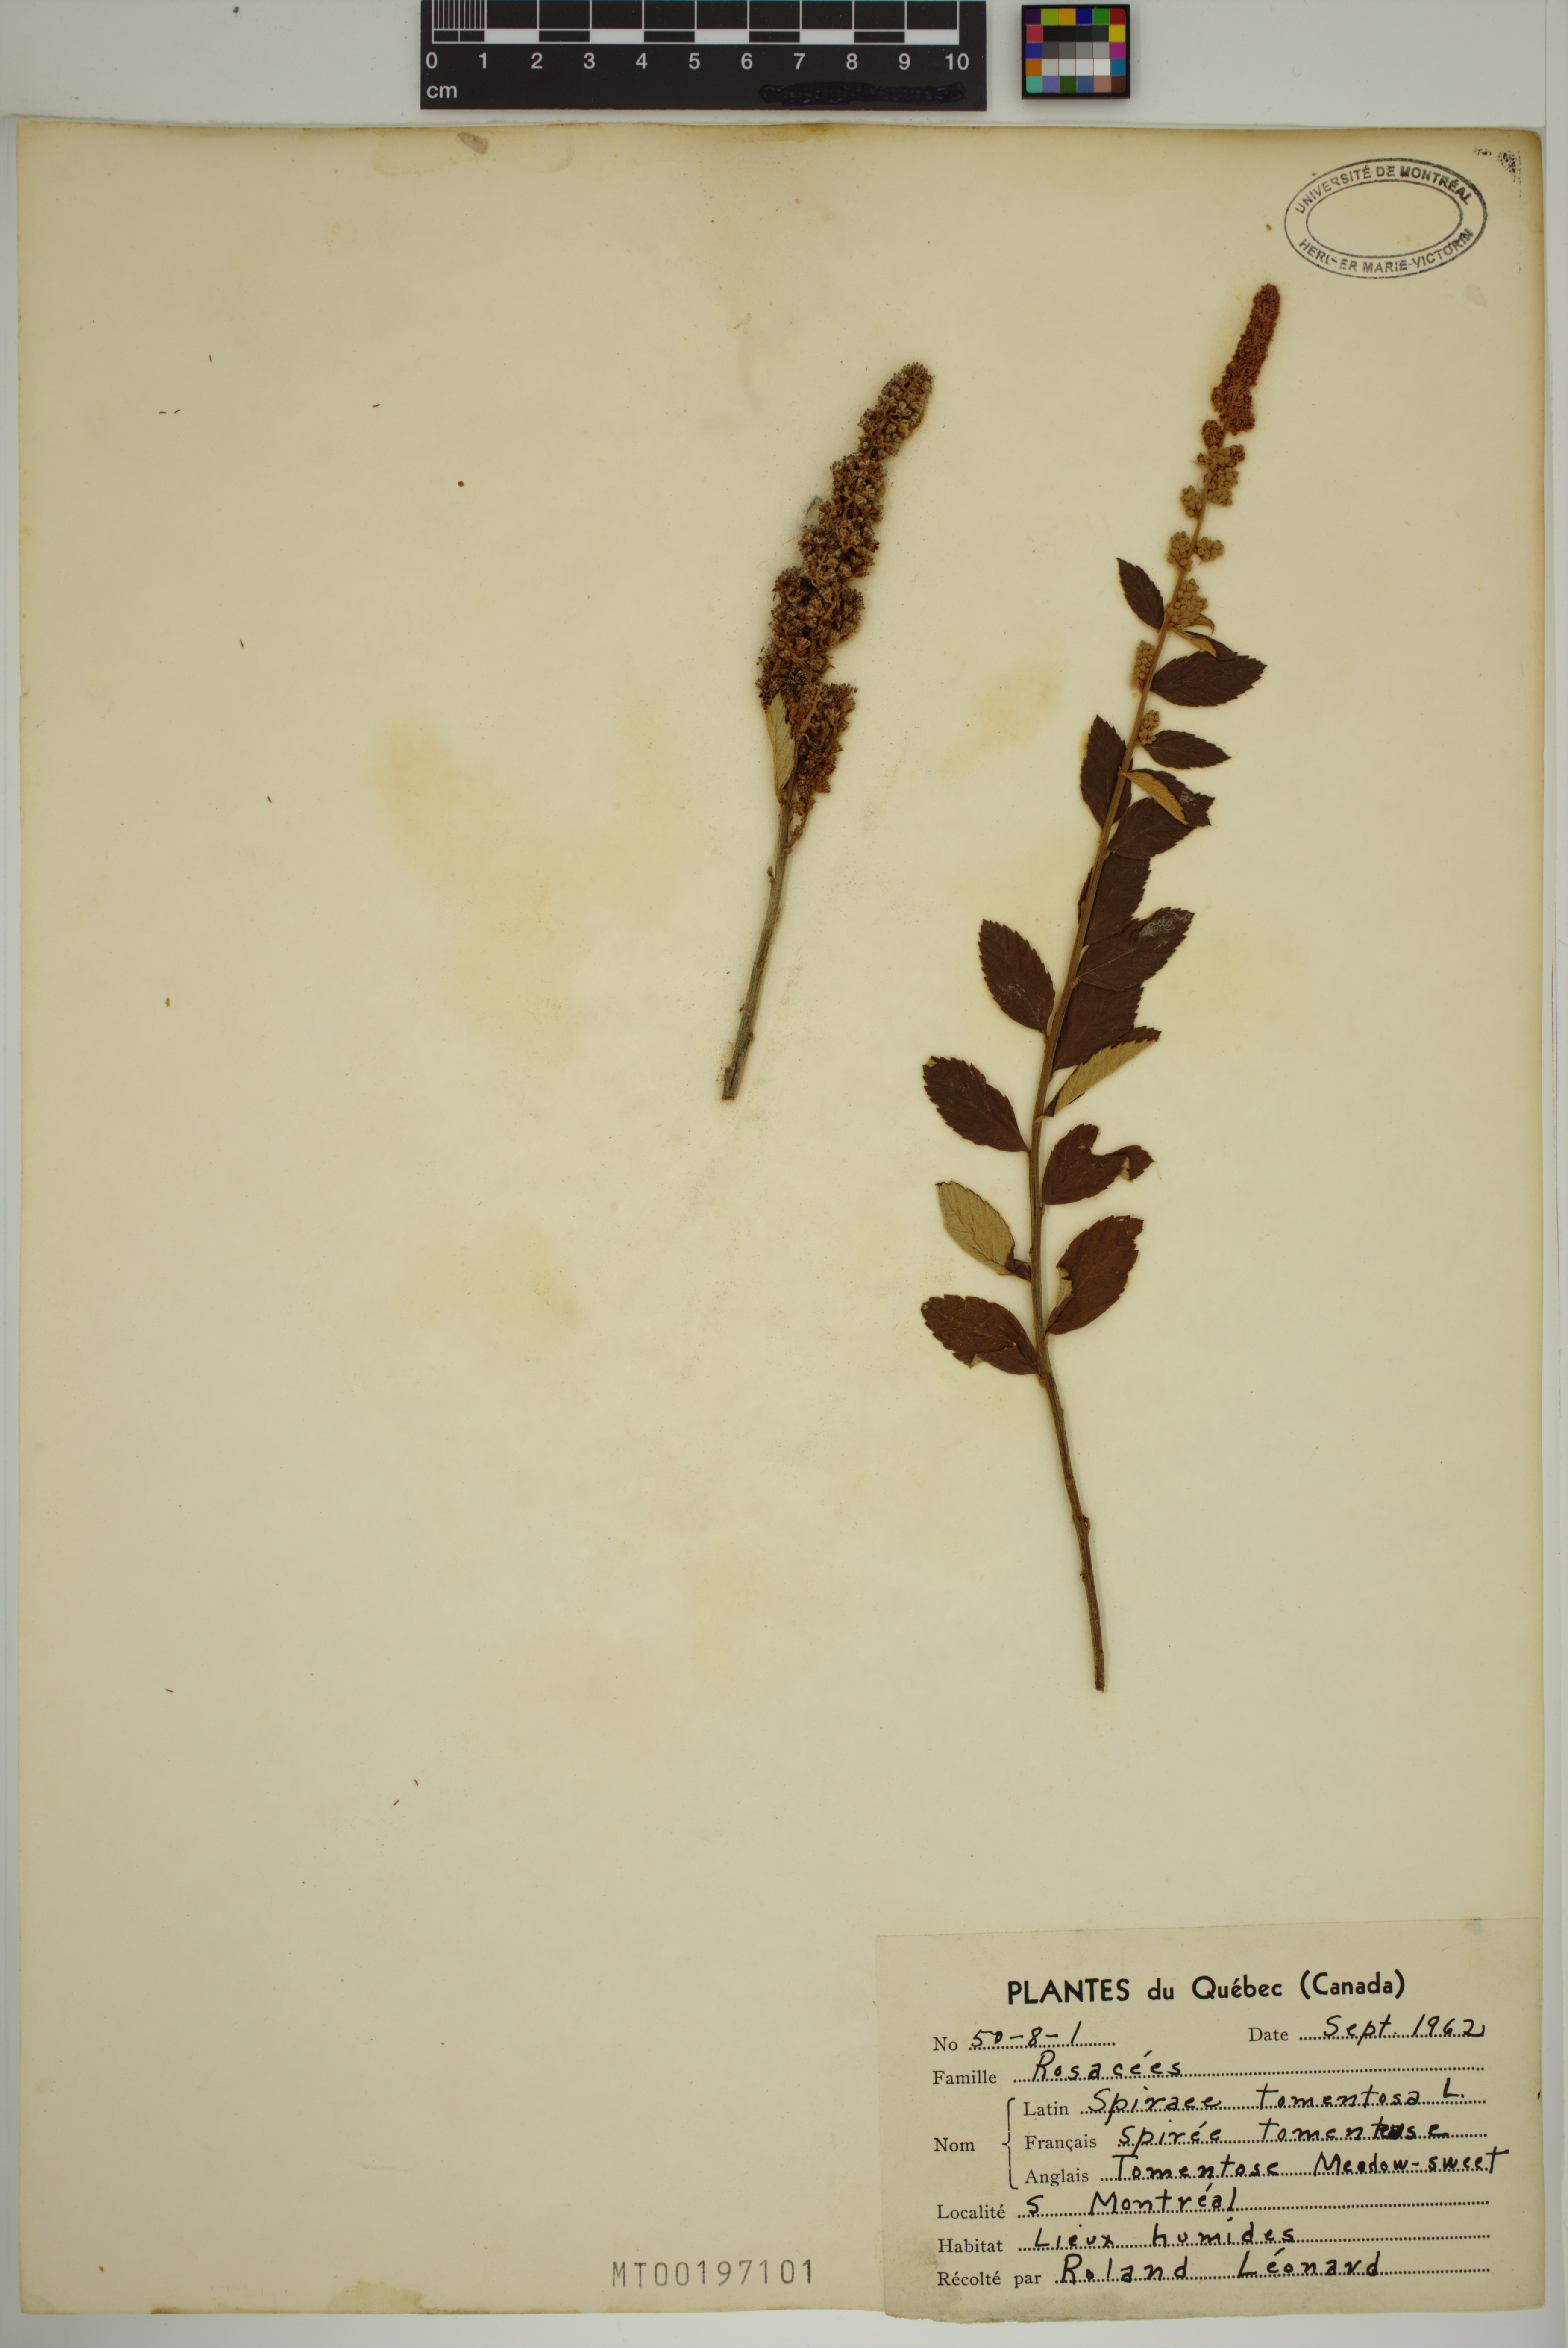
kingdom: Plantae
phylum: Tracheophyta
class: Magnoliopsida
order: Rosales
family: Rosaceae
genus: Spiraea
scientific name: Spiraea tomentosa
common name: Hardhack
